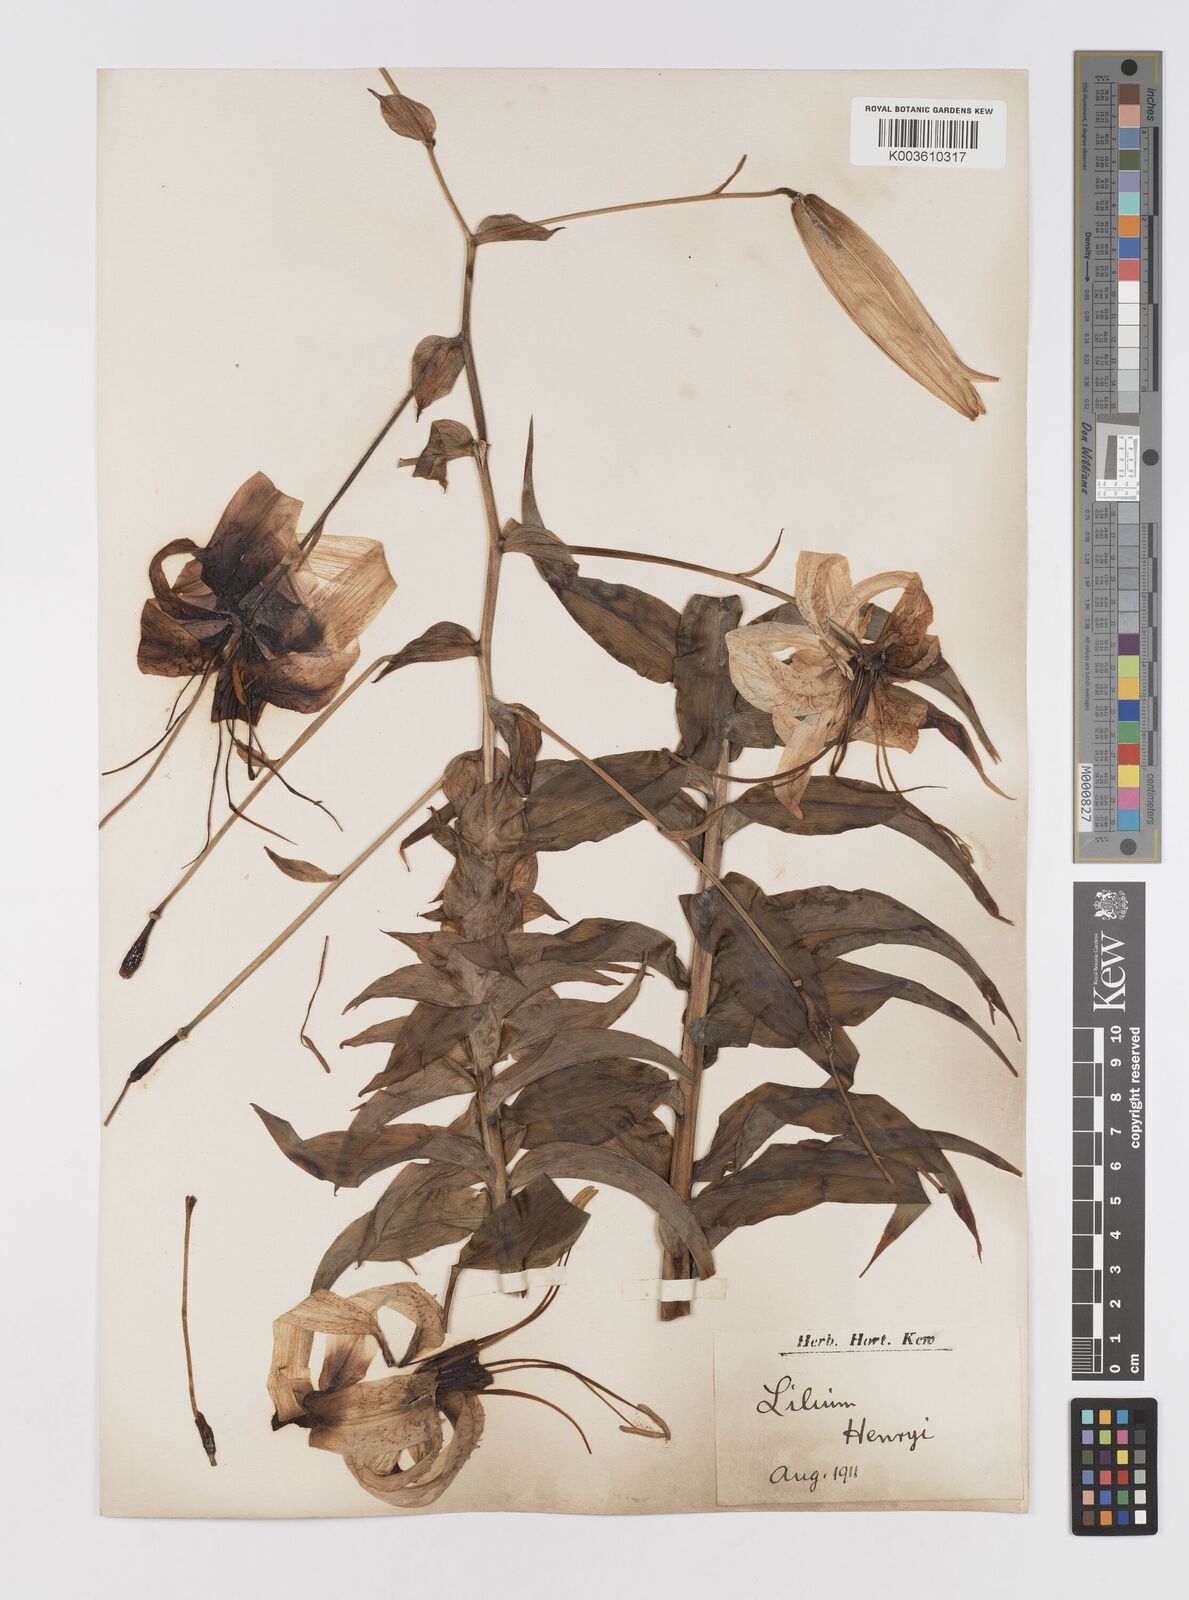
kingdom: Plantae
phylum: Tracheophyta
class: Liliopsida
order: Liliales
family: Liliaceae
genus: Lilium
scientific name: Lilium henryi
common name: Henry's lily
